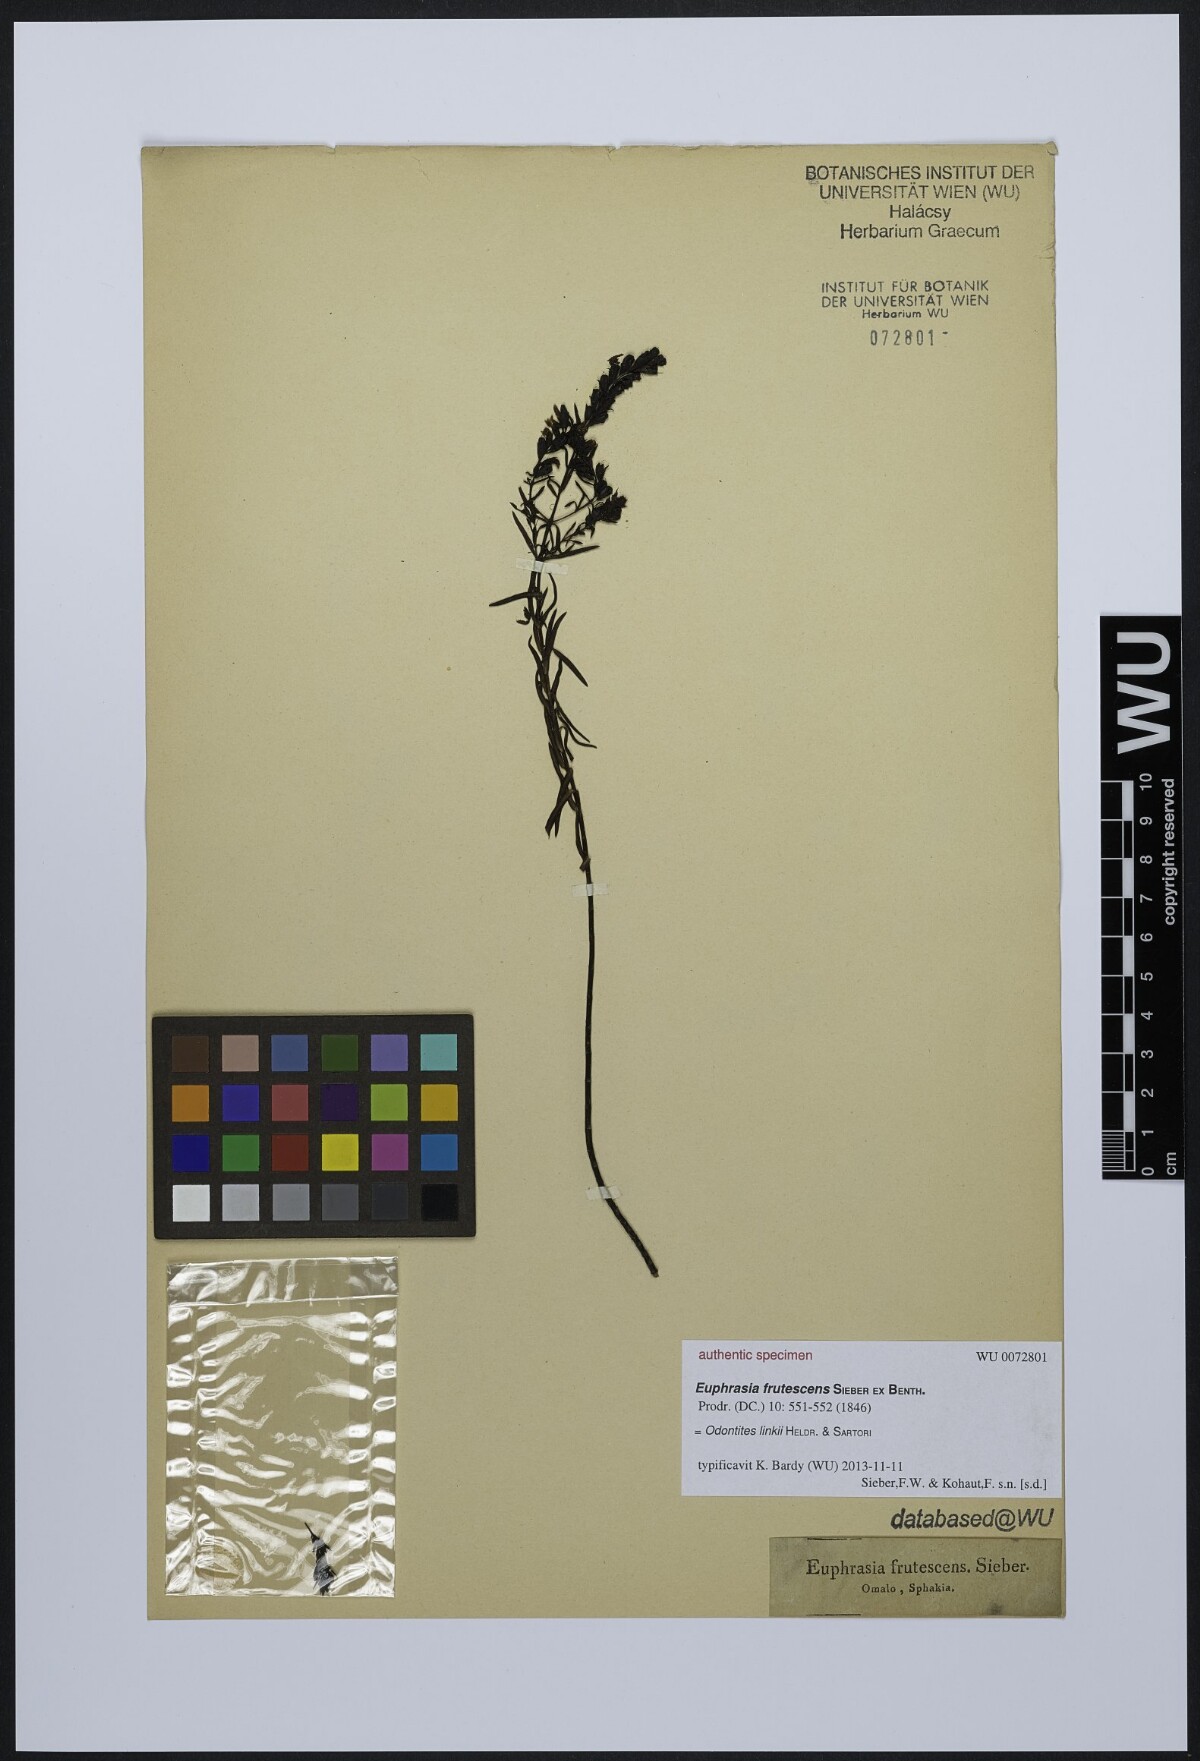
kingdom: Plantae
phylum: Tracheophyta
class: Magnoliopsida
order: Lamiales
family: Orobanchaceae
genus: Odontites
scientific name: Odontites bocconei
